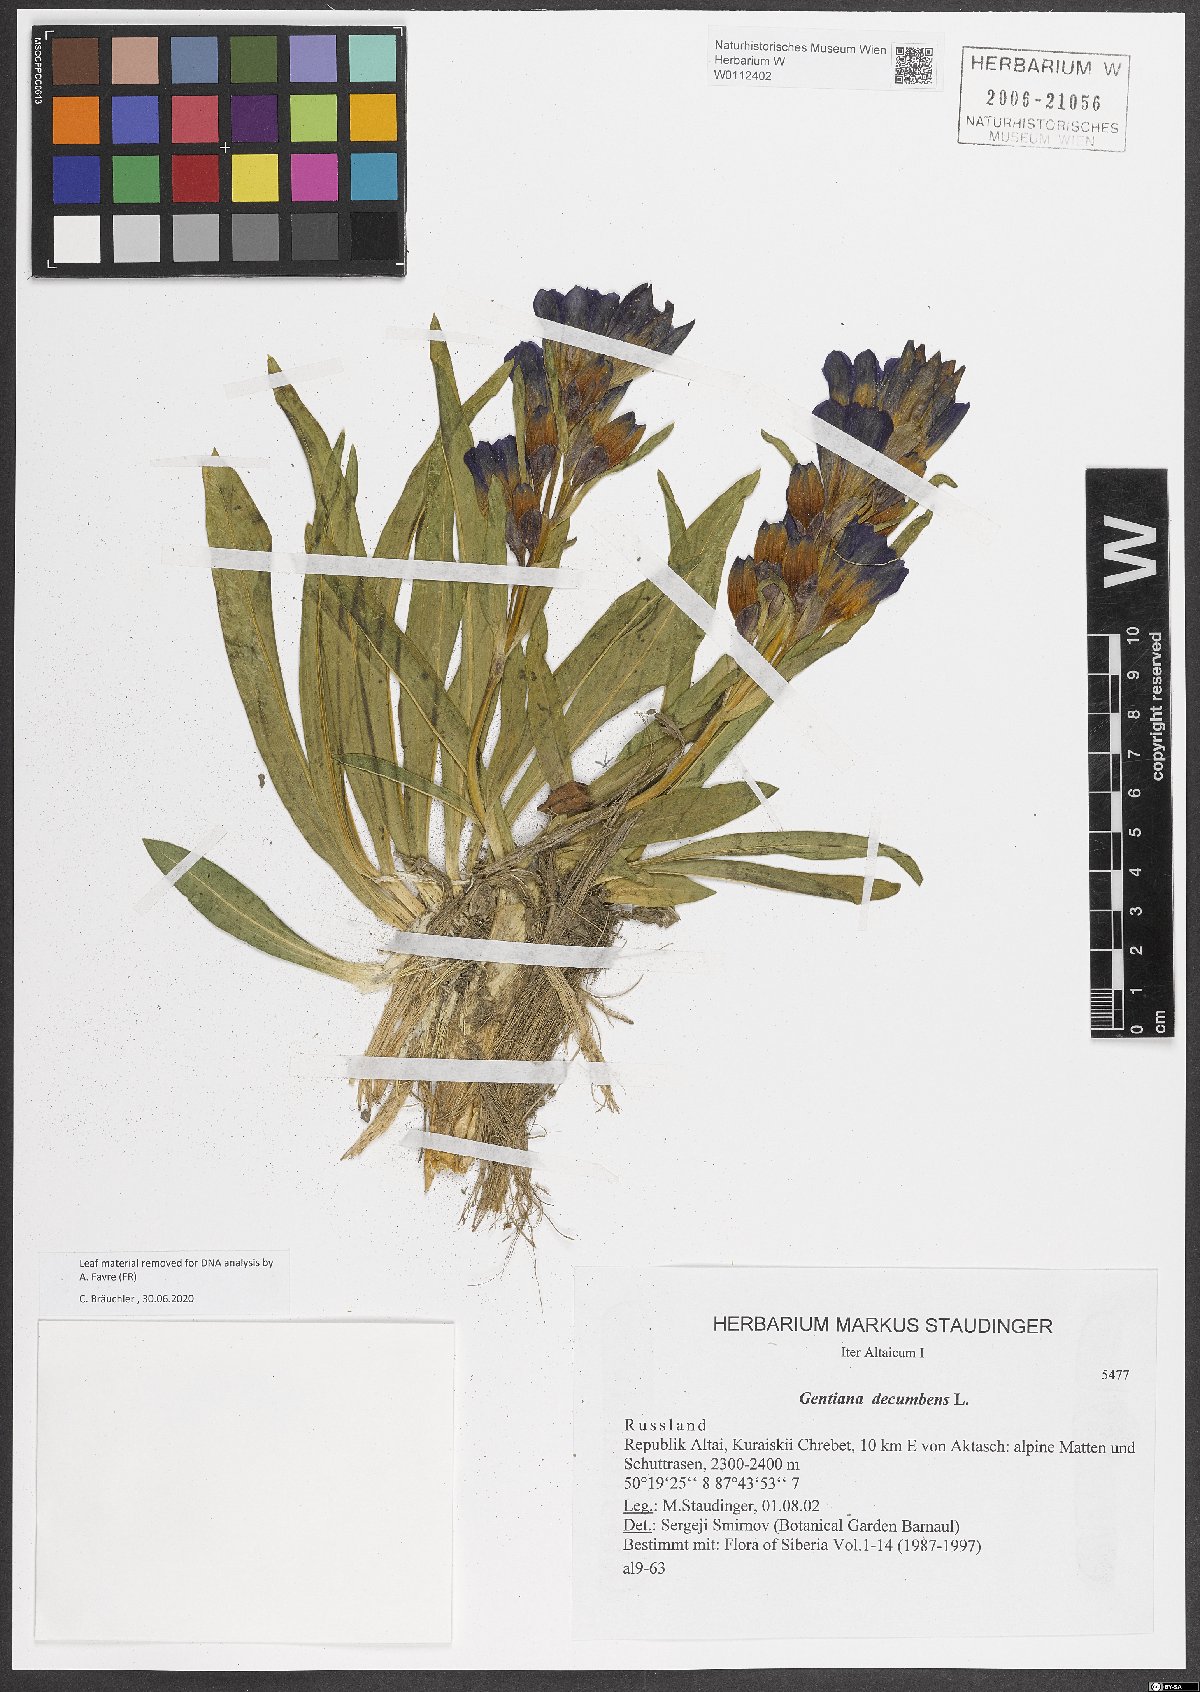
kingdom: Plantae
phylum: Tracheophyta
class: Magnoliopsida
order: Gentianales
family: Gentianaceae
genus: Gentiana
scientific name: Gentiana decumbens
